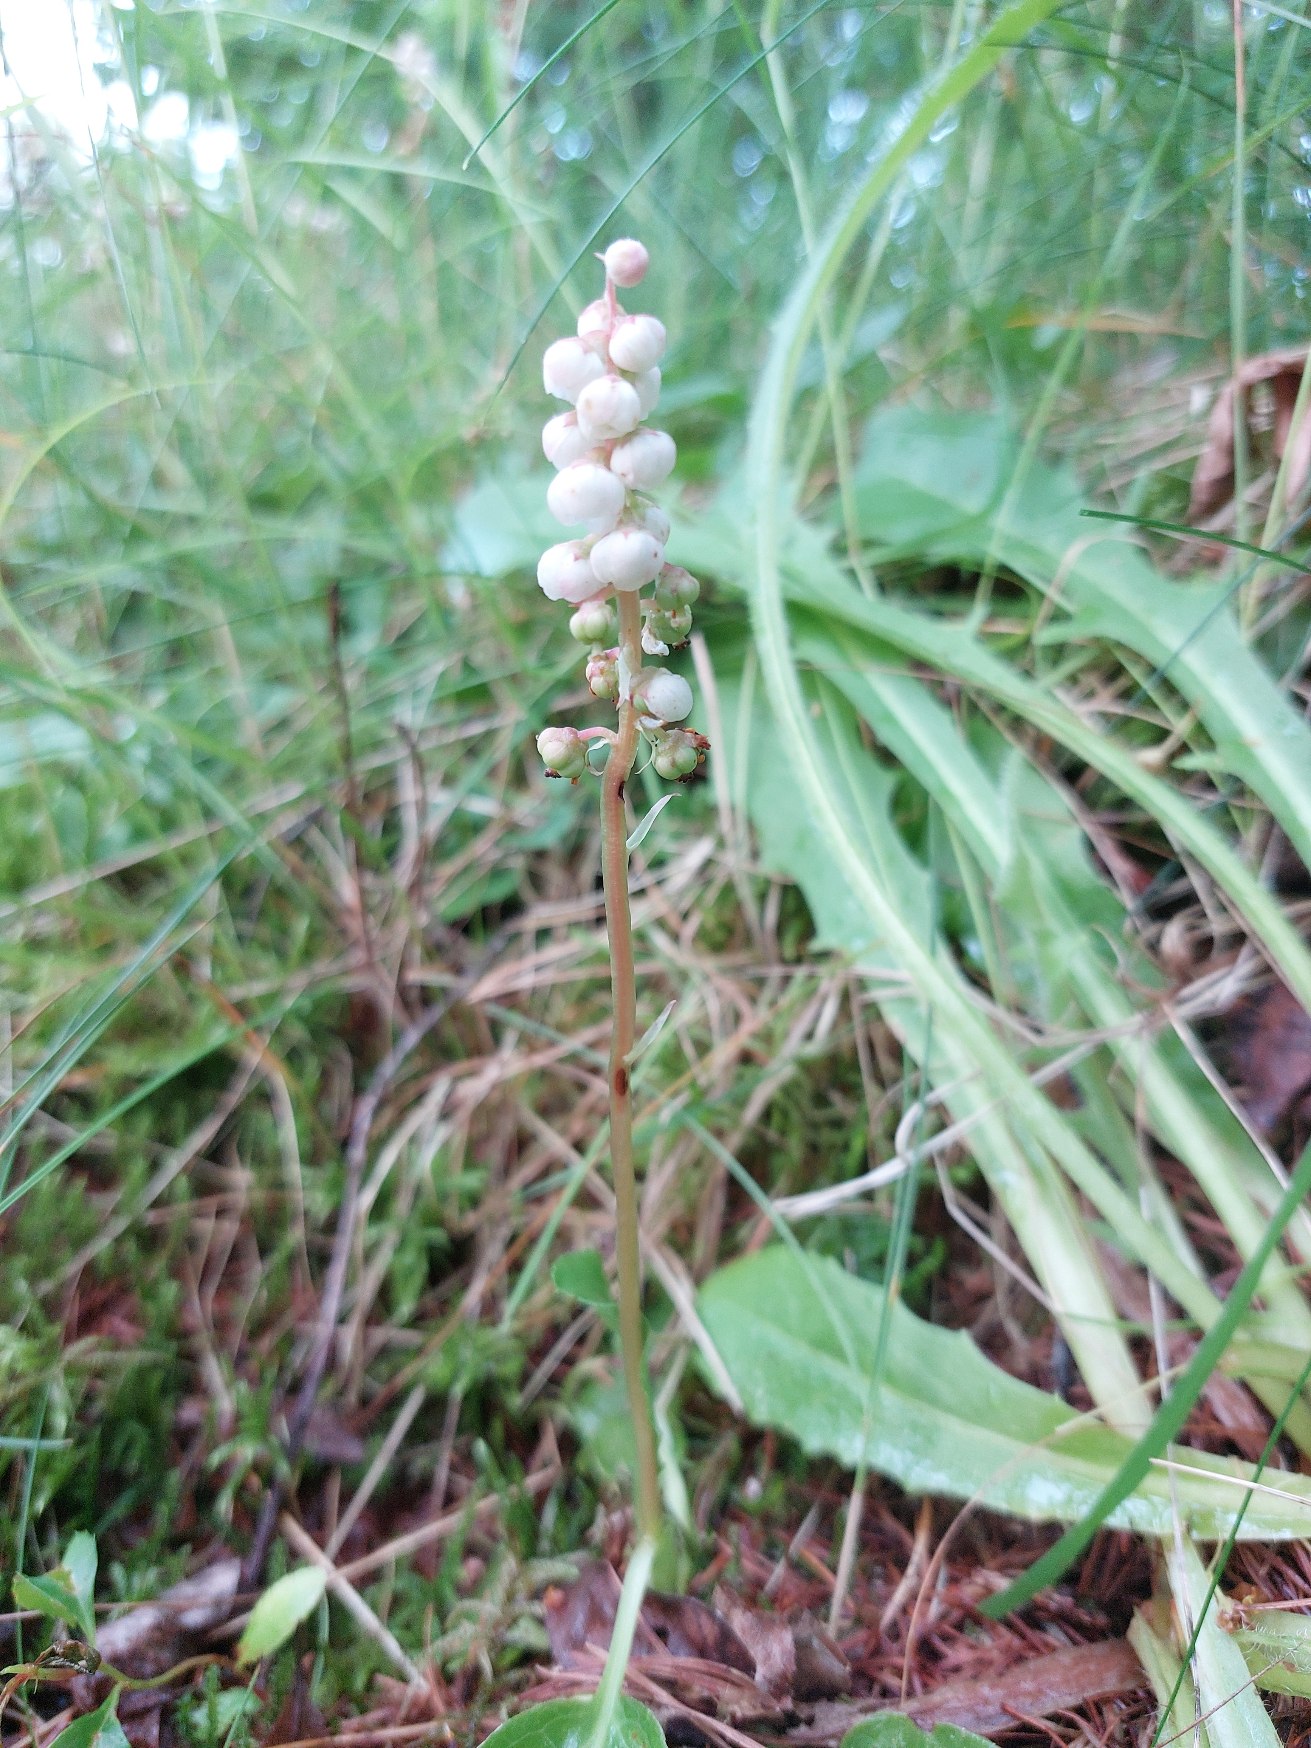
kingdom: Plantae
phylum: Tracheophyta
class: Magnoliopsida
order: Ericales
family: Ericaceae
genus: Pyrola
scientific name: Pyrola minor
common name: Liden vintergrøn
